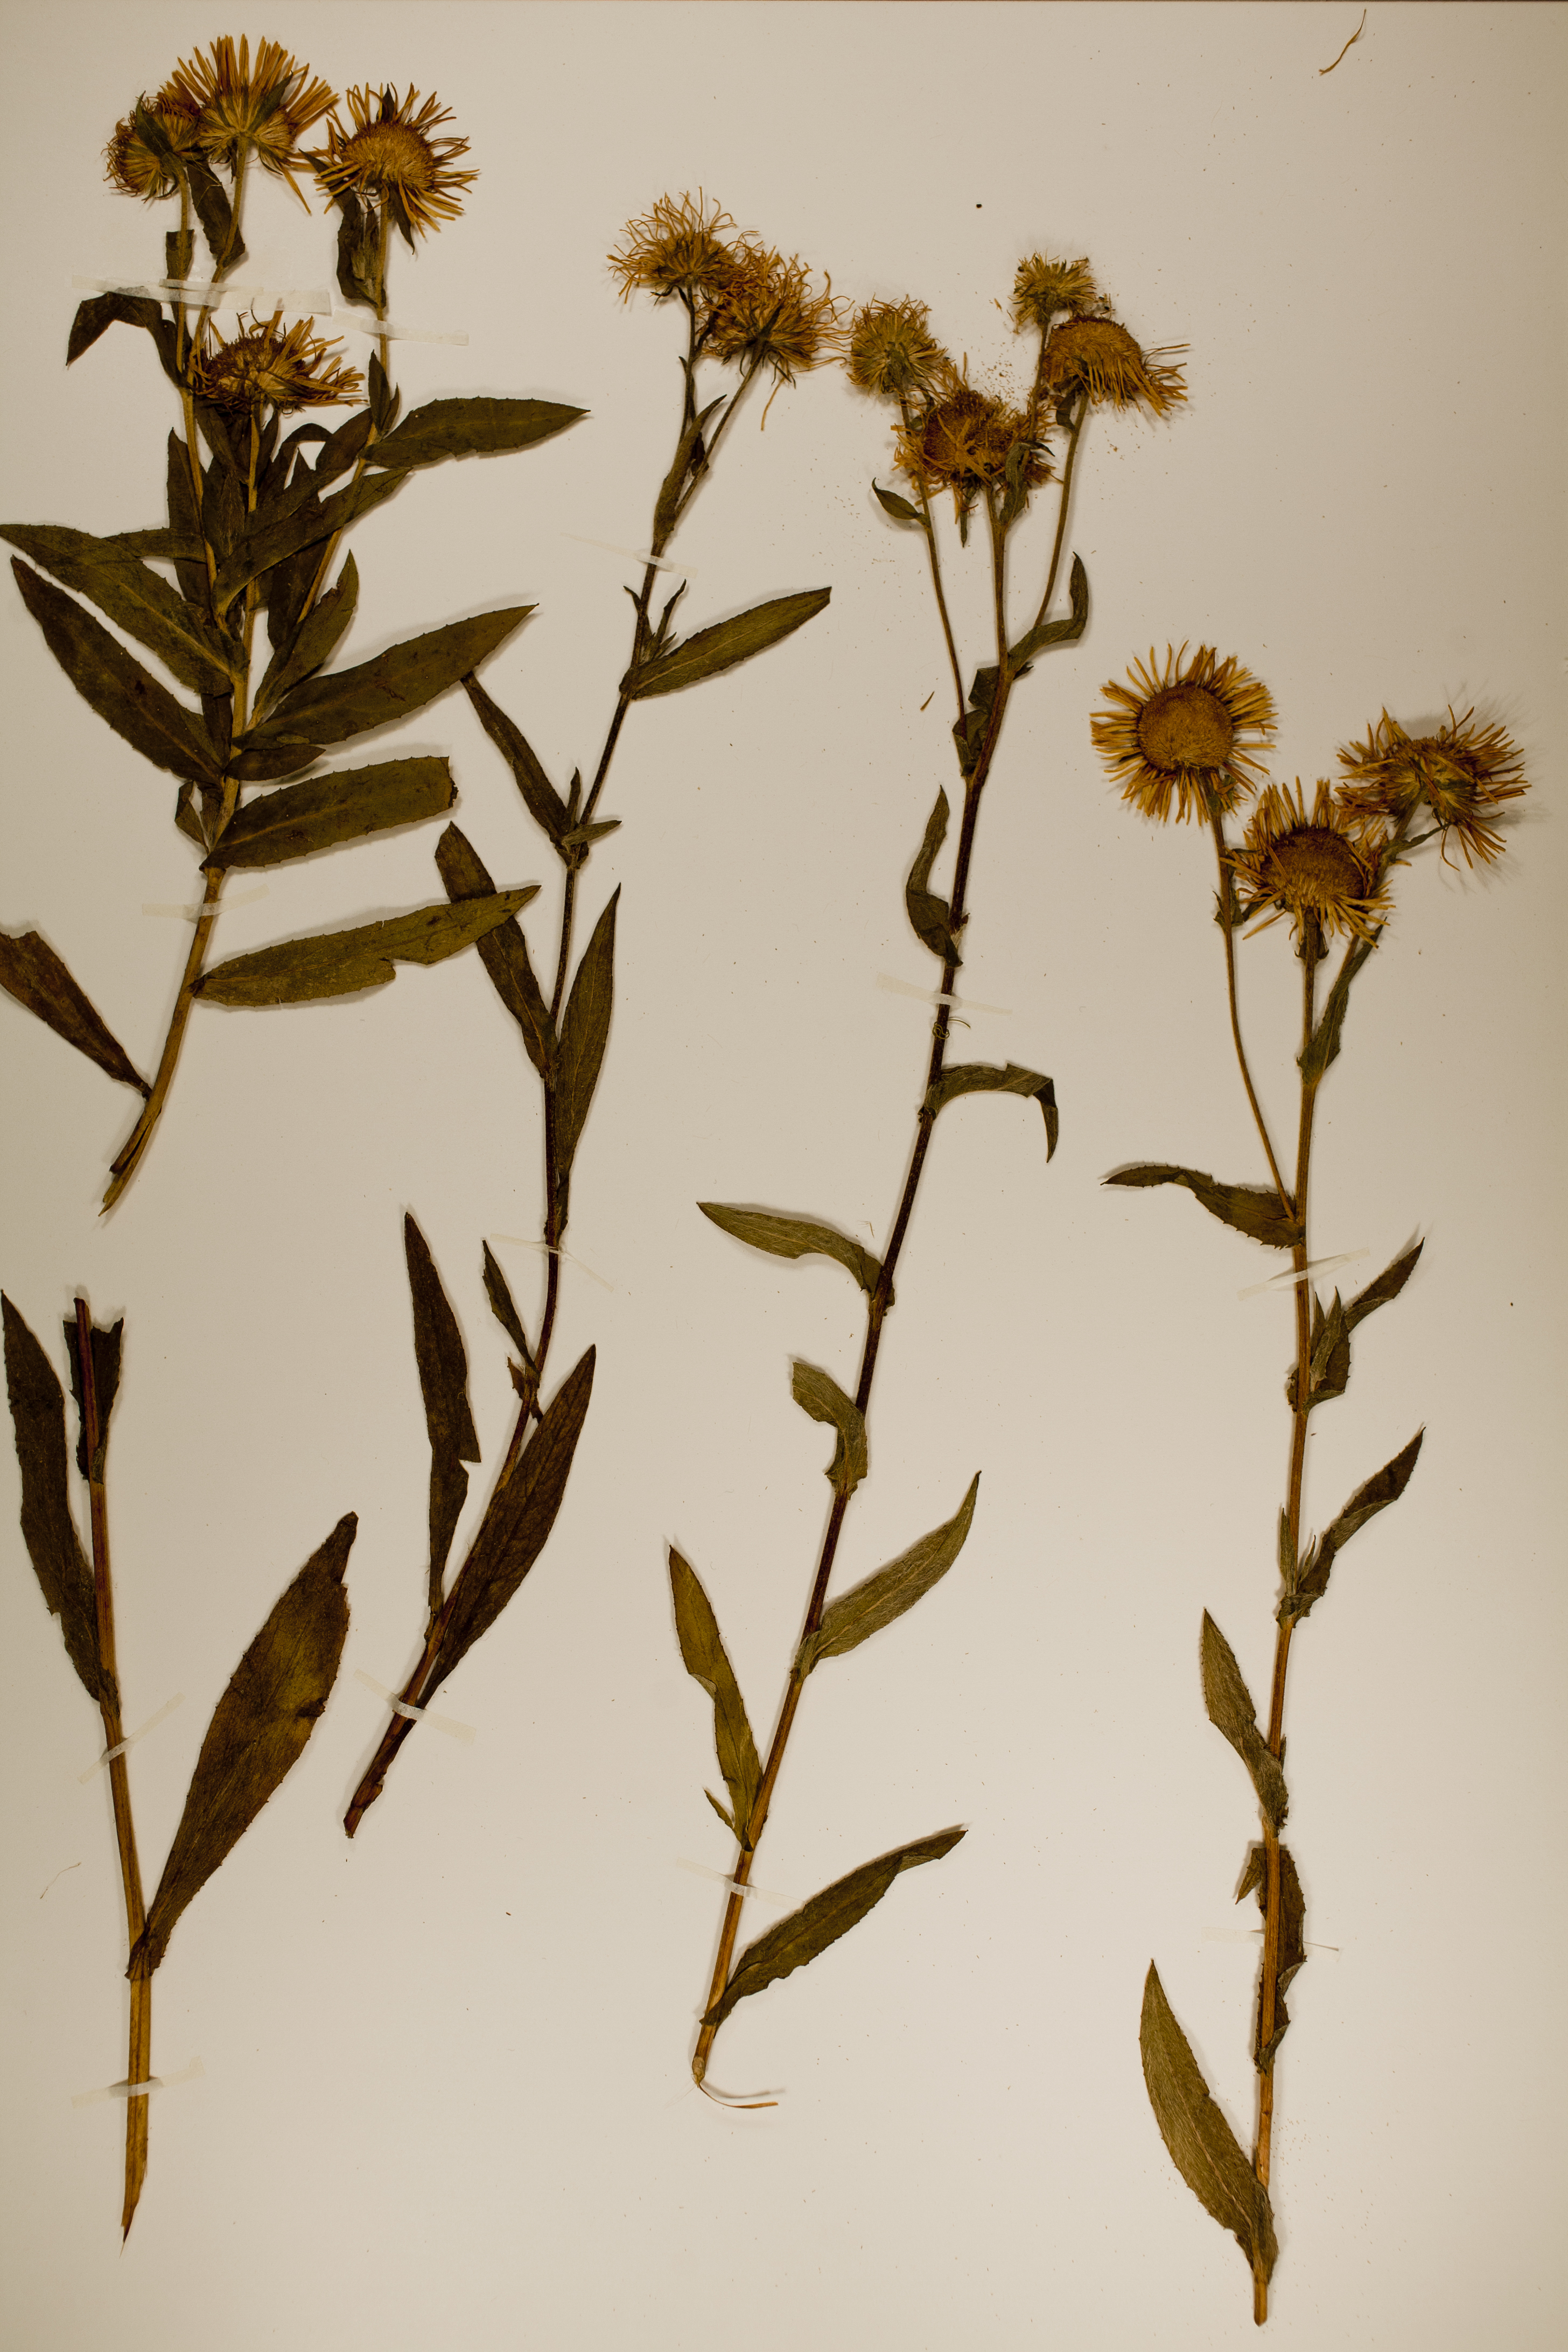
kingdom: Plantae
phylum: Tracheophyta
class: Magnoliopsida
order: Asterales
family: Asteraceae
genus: Pentanema
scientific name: Pentanema britannicum
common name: British elecampane
